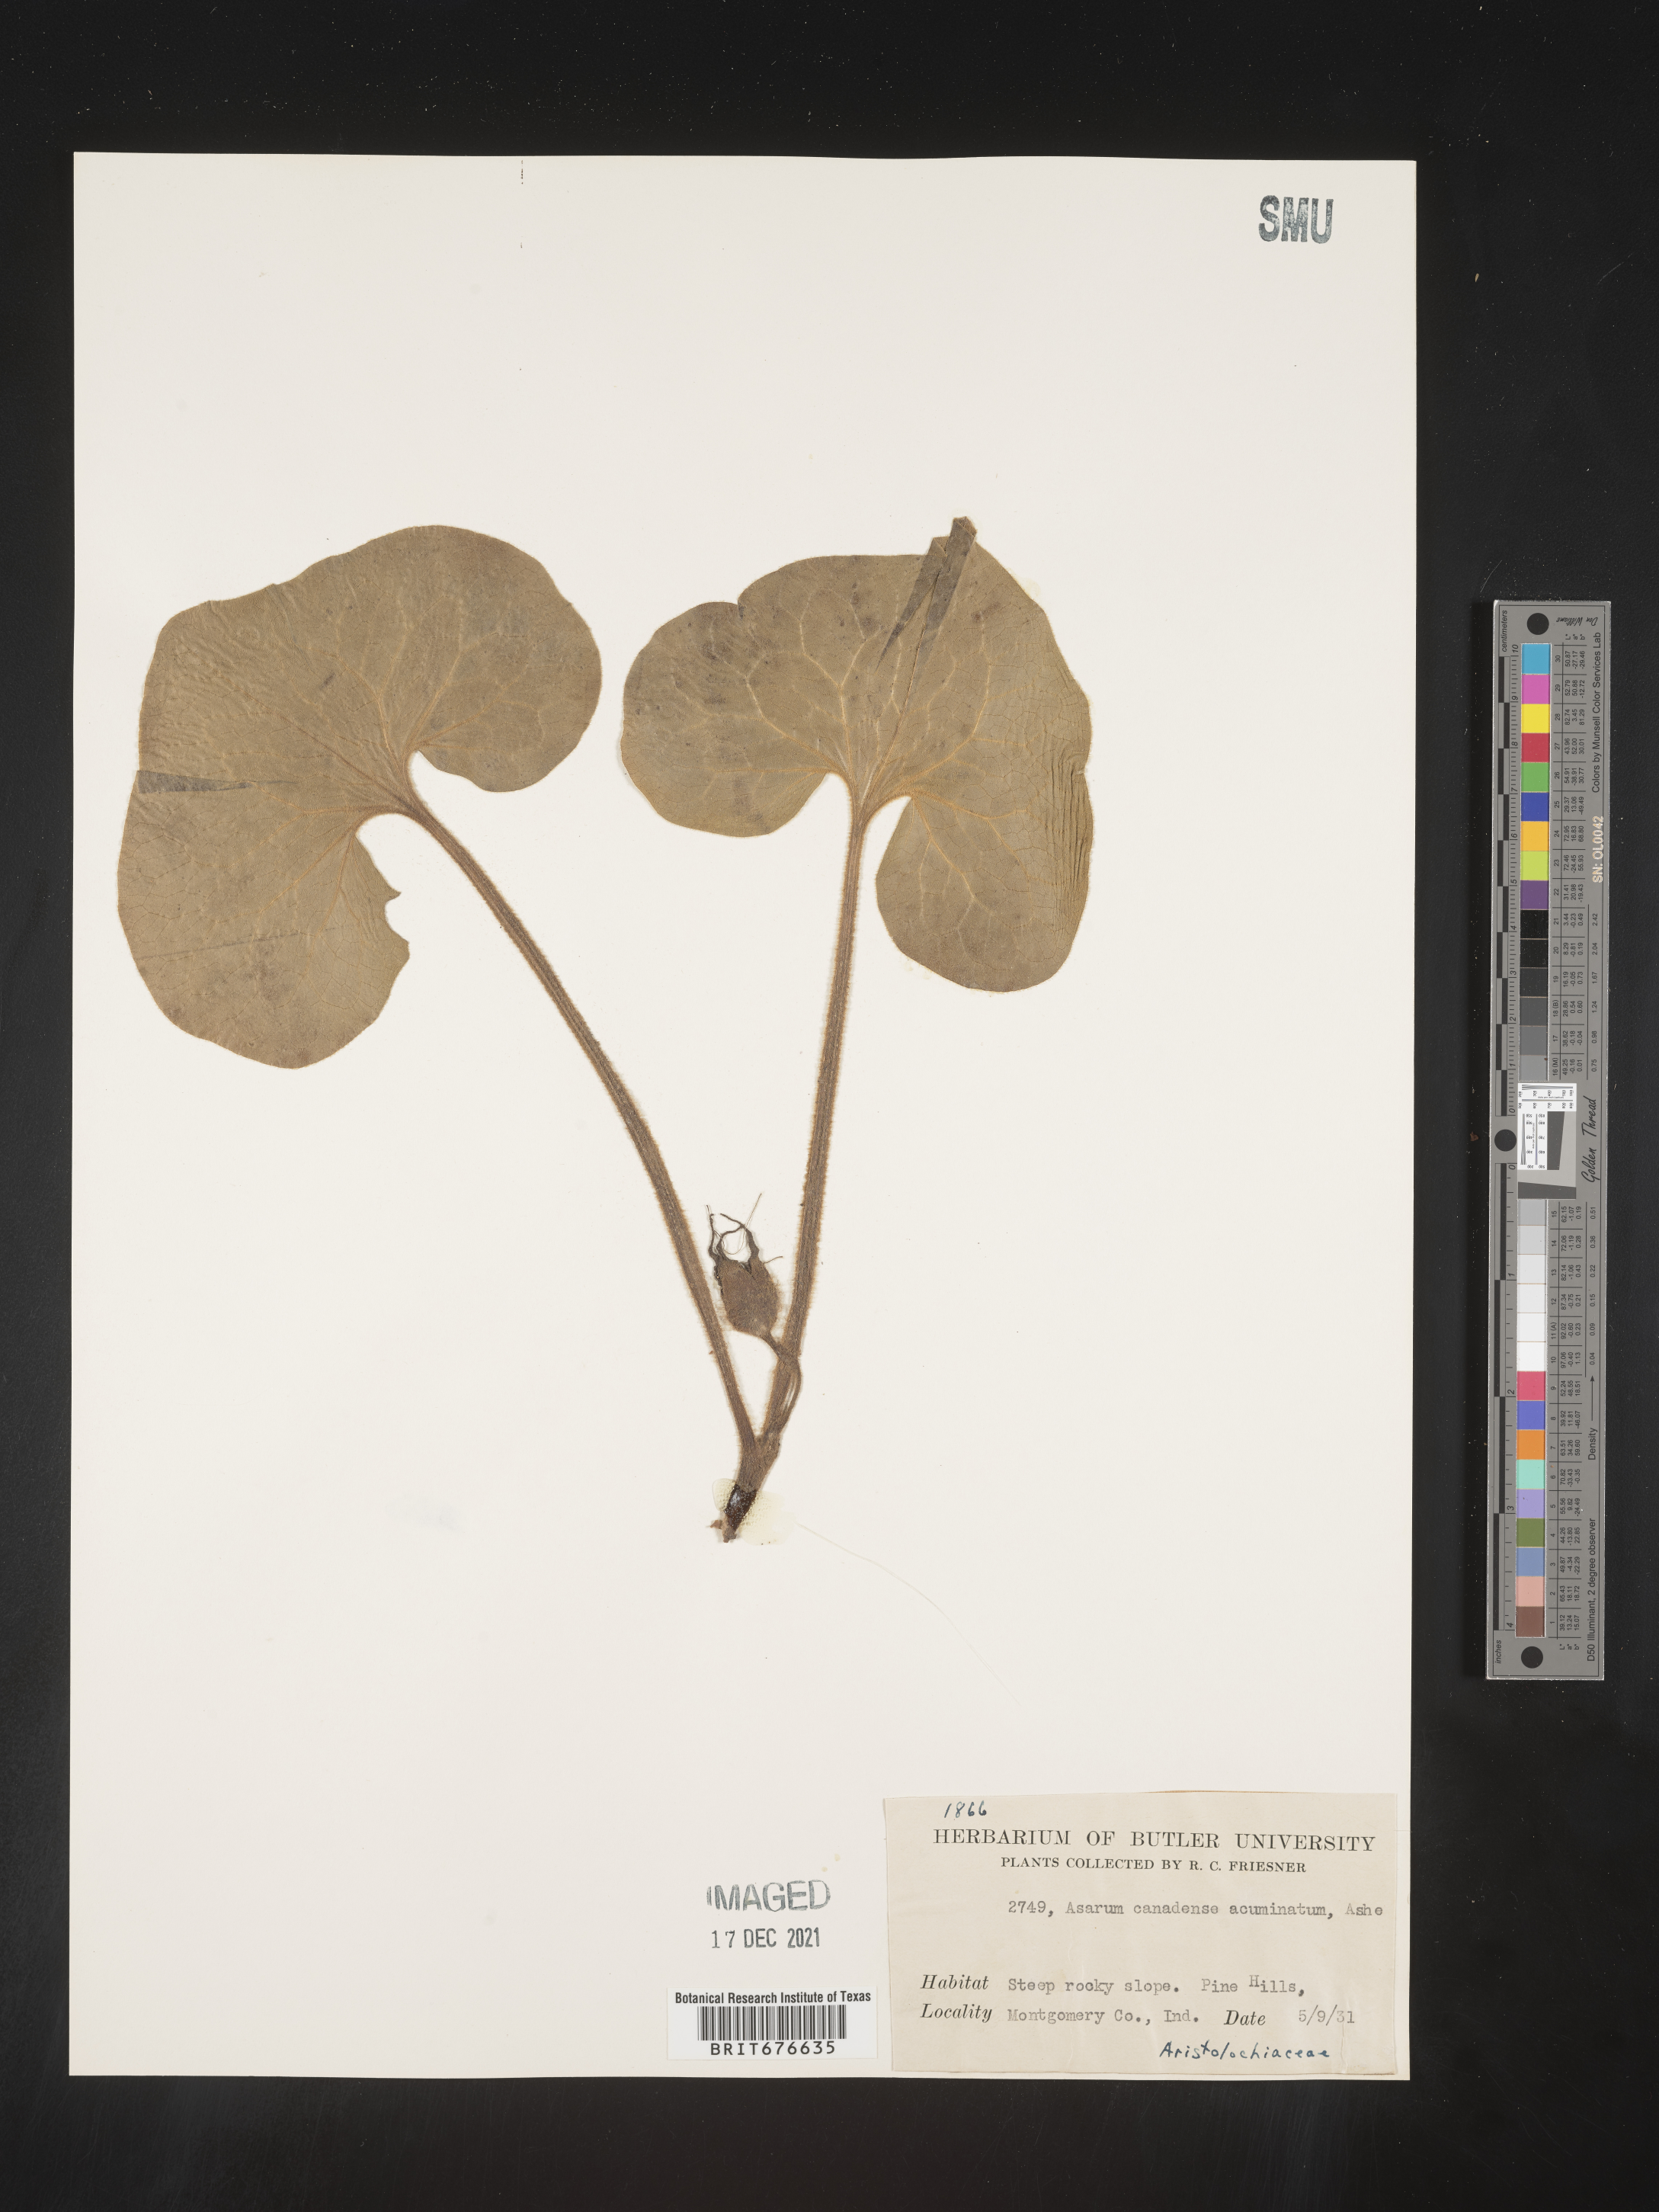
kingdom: Plantae
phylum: Tracheophyta
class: Magnoliopsida
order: Piperales
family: Aristolochiaceae
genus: Asarum
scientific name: Asarum canadense
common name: Wild ginger
